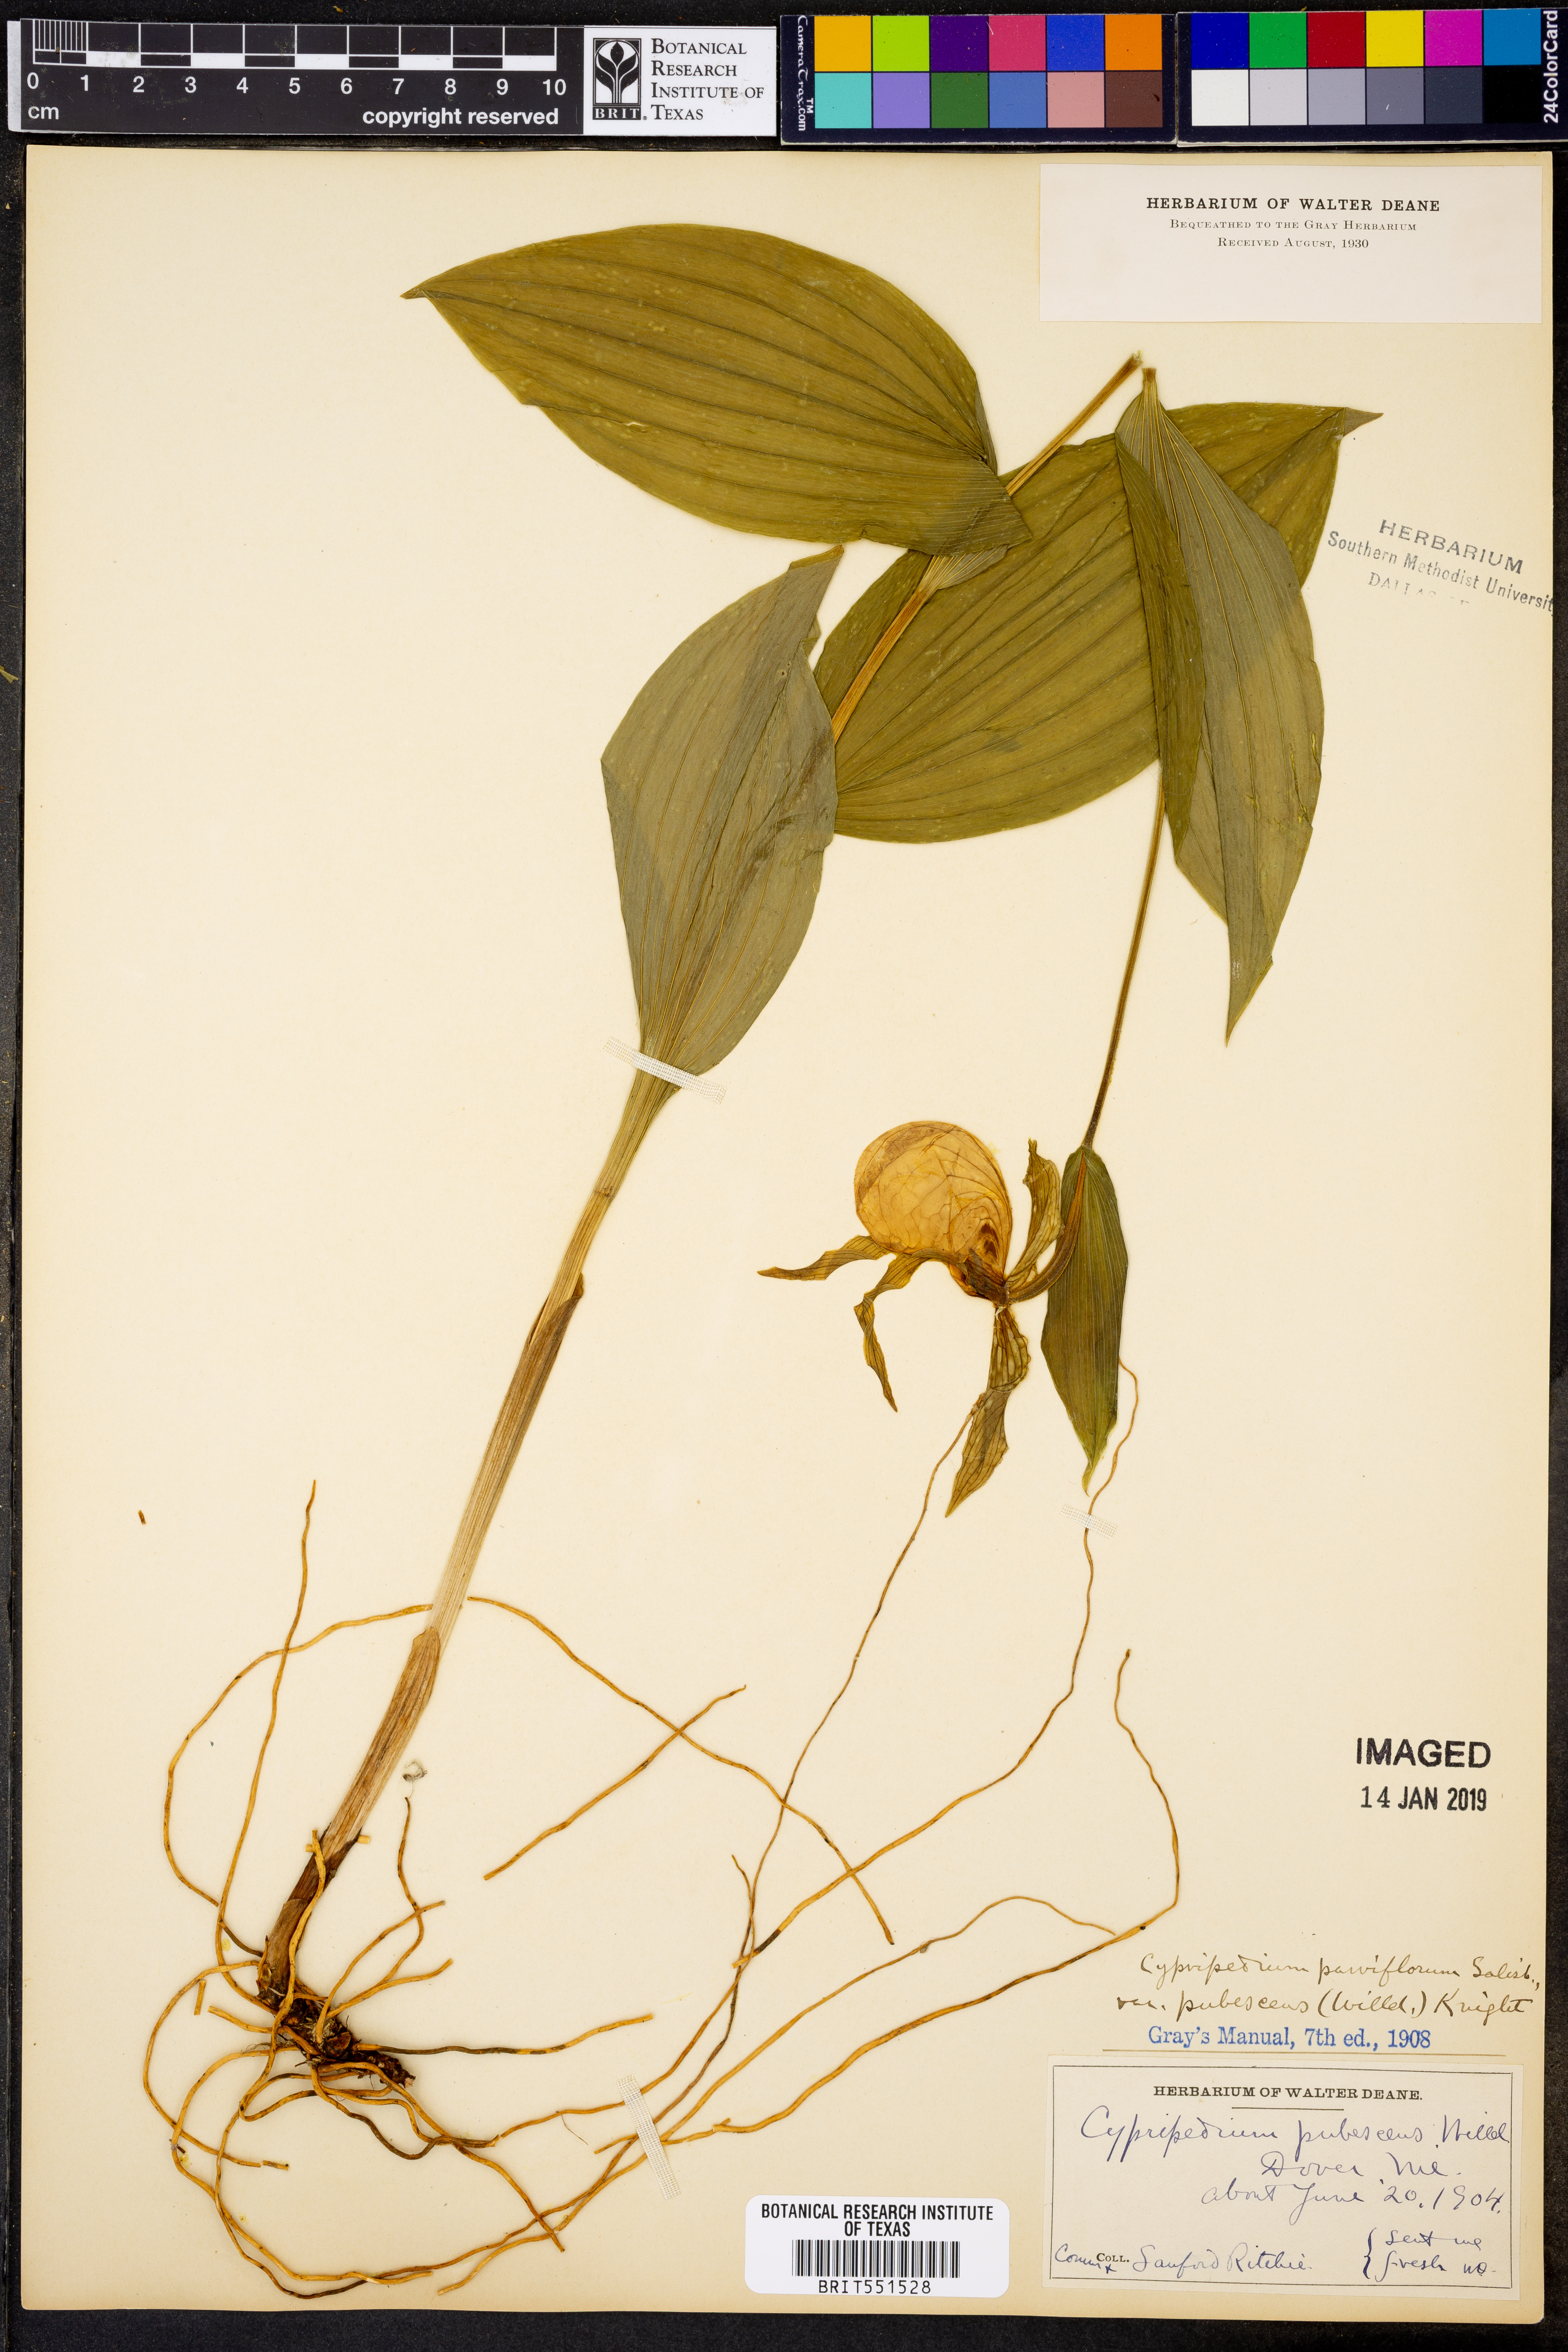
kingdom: Plantae
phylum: Tracheophyta
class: Liliopsida
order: Asparagales
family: Orchidaceae
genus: Cypripedium
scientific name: Cypripedium parviflorum
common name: American yellow lady's-slipper
